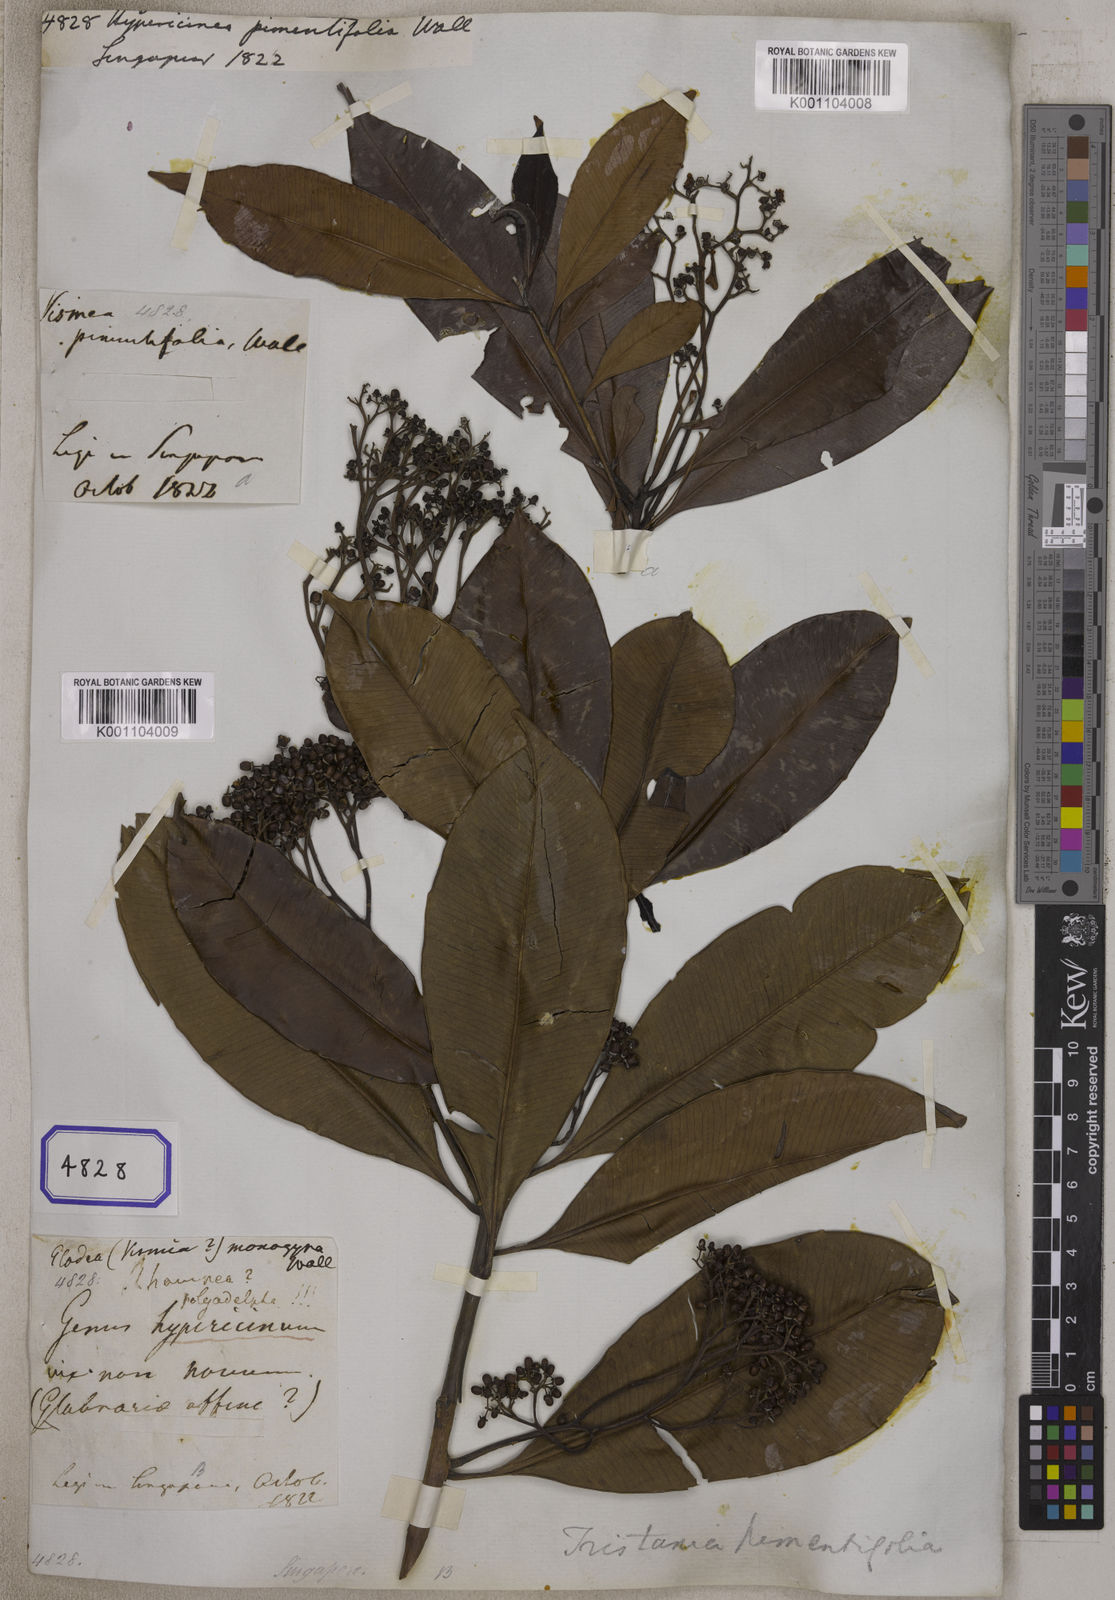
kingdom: Plantae
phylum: Tracheophyta
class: Magnoliopsida
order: Myrtales
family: Myrtaceae
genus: Tristaniopsis
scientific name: Tristaniopsis whiteana
